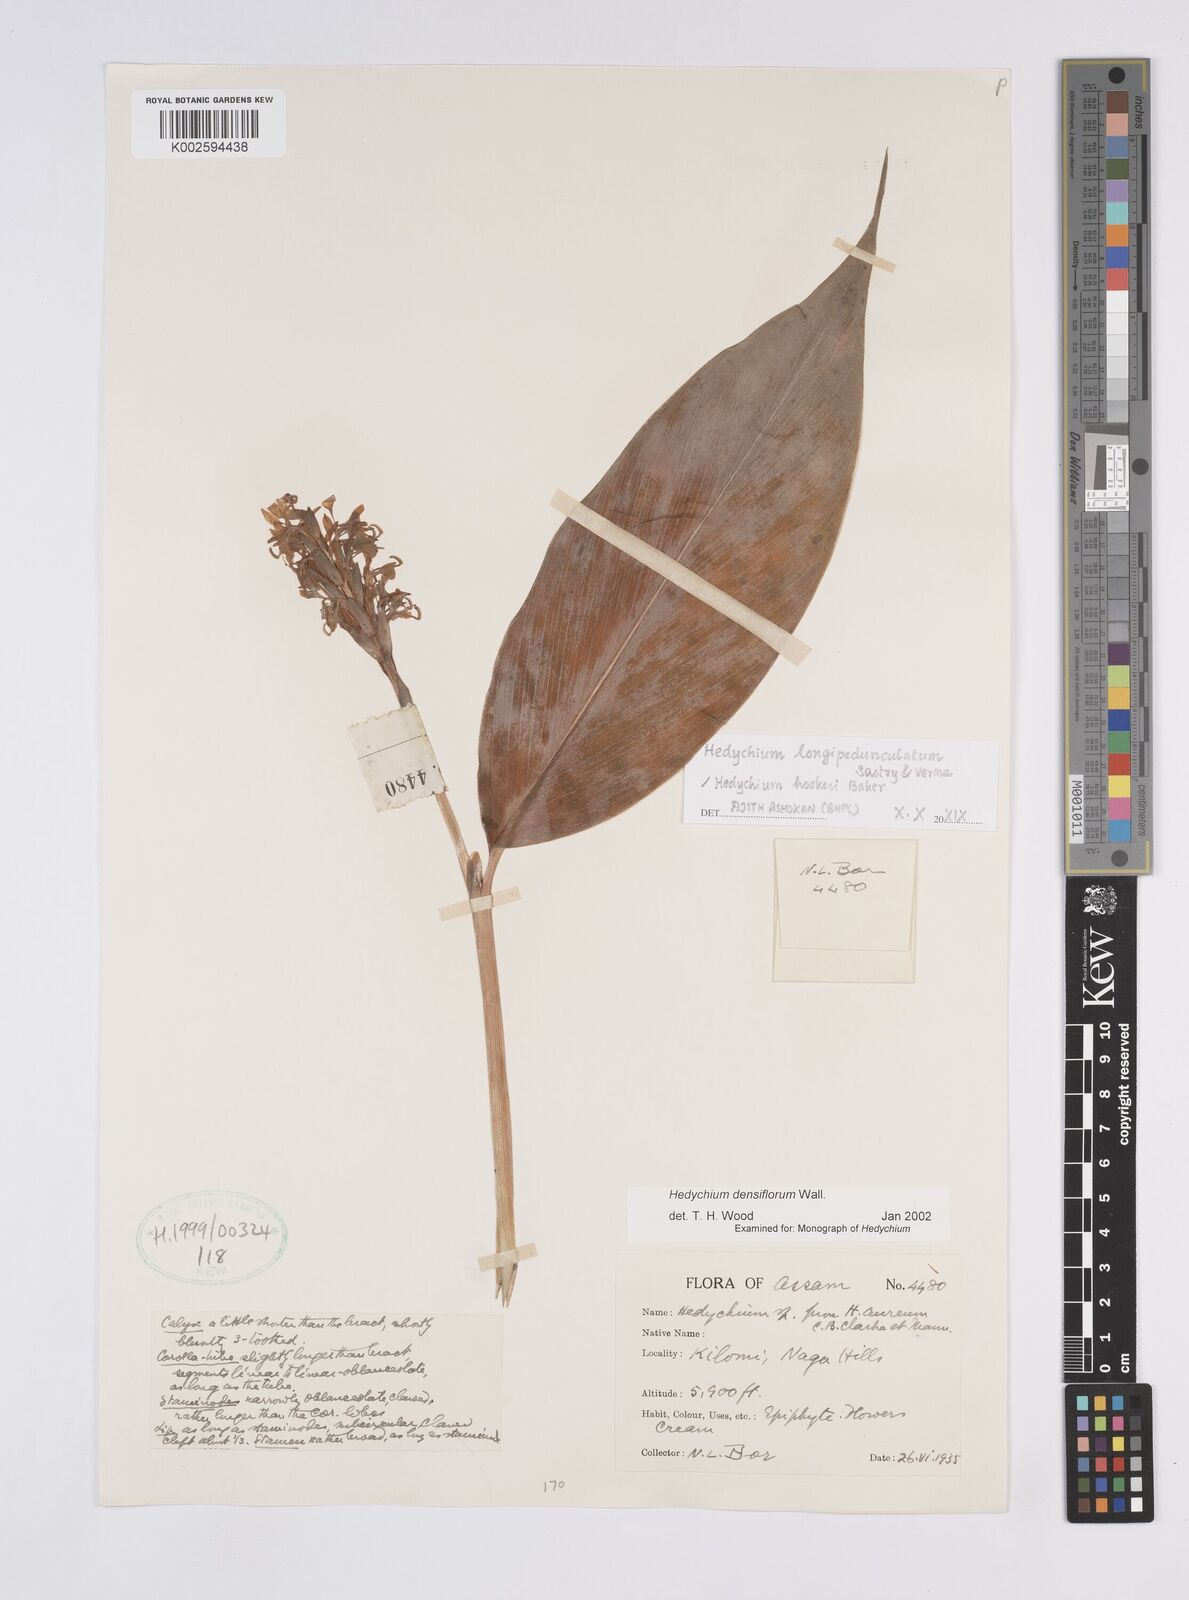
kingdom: Plantae
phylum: Tracheophyta
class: Liliopsida
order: Zingiberales
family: Zingiberaceae
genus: Hedychium
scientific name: Hedychium densiflorum
